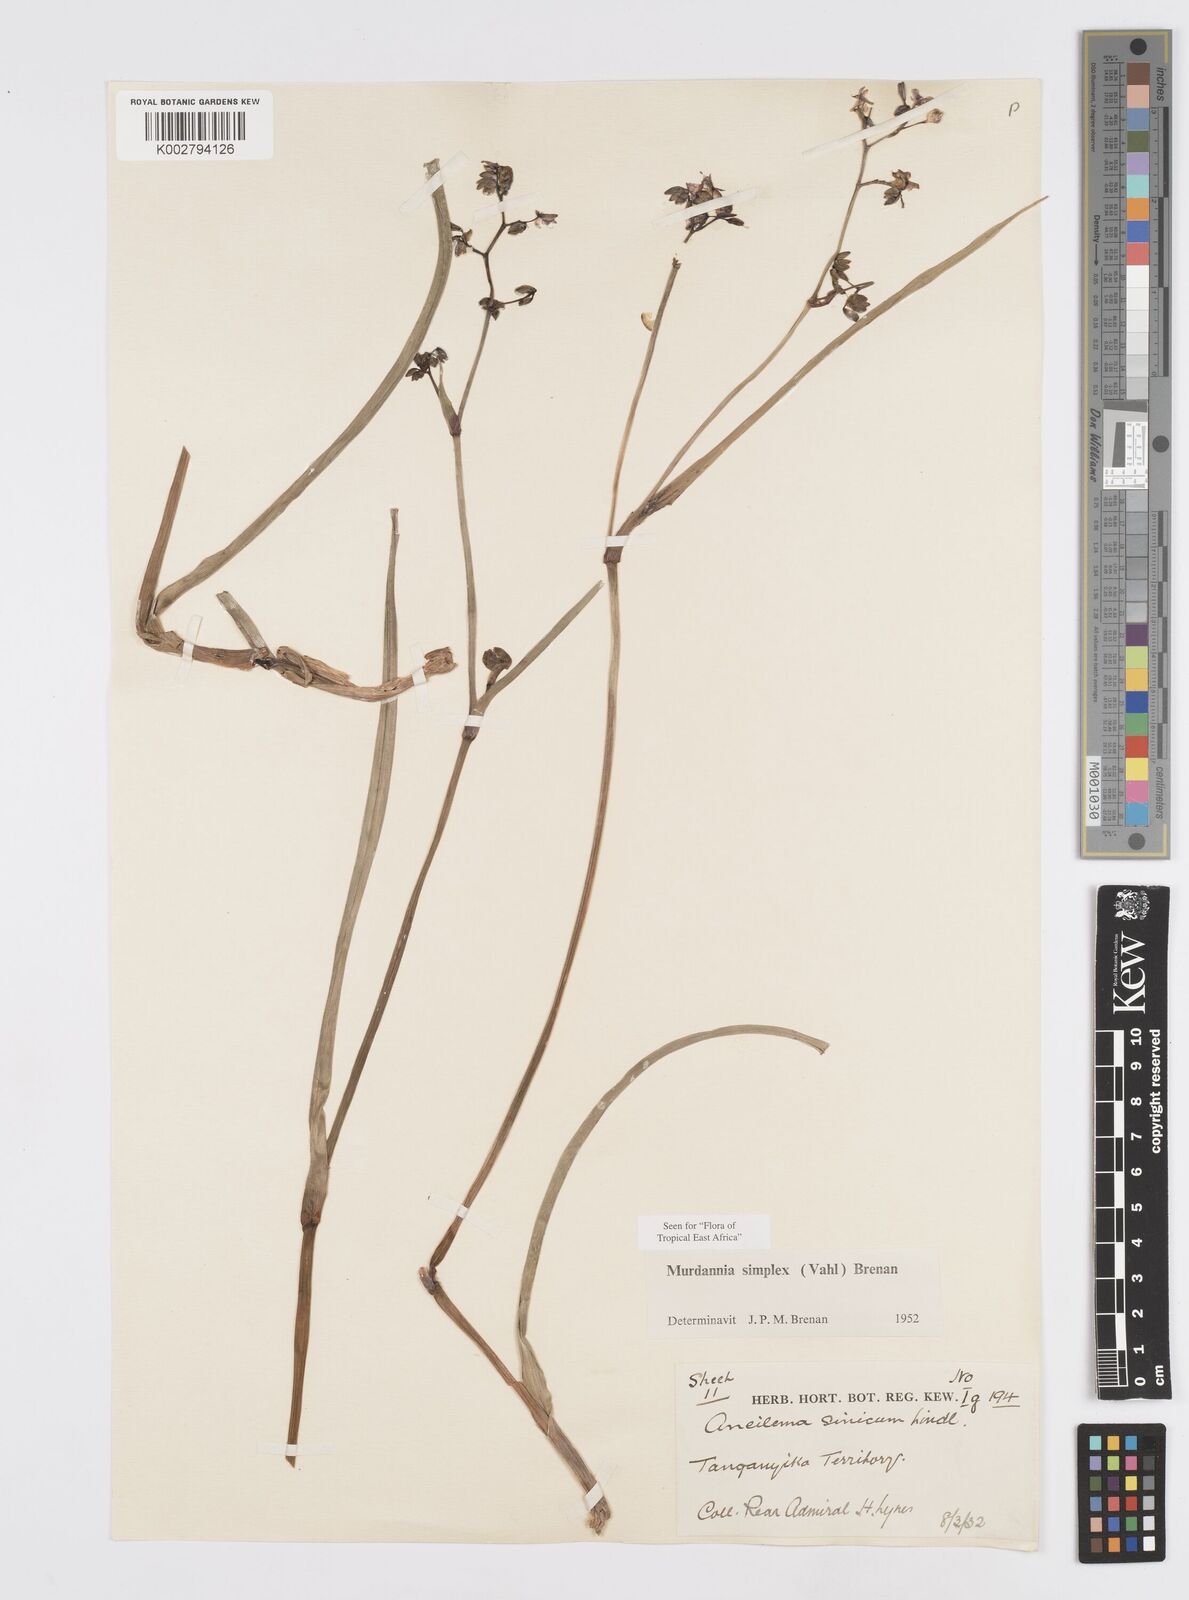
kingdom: Plantae
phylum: Tracheophyta
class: Liliopsida
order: Commelinales
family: Commelinaceae
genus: Murdannia
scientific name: Murdannia simplex
